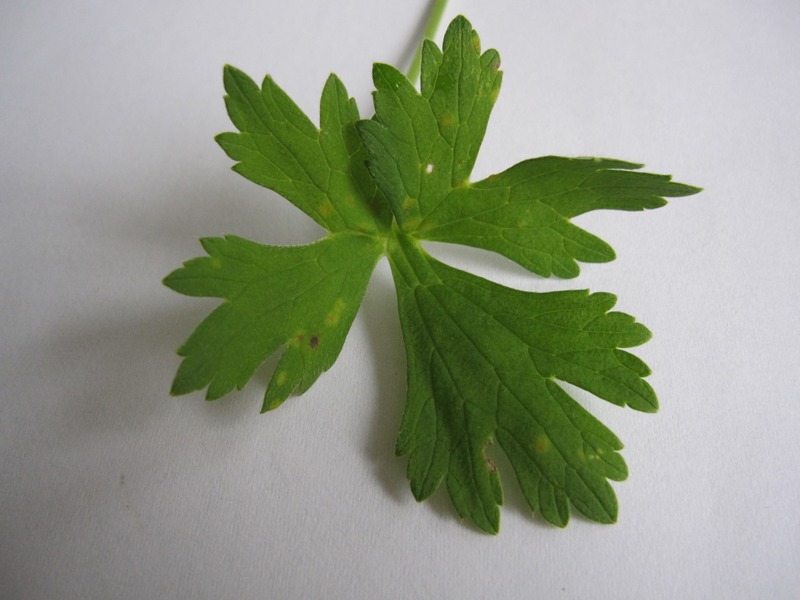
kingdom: Fungi
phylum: Basidiomycota
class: Pucciniomycetes
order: Pucciniales
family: Pucciniaceae
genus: Aecidium
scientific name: Aecidium ranunculi-acris
